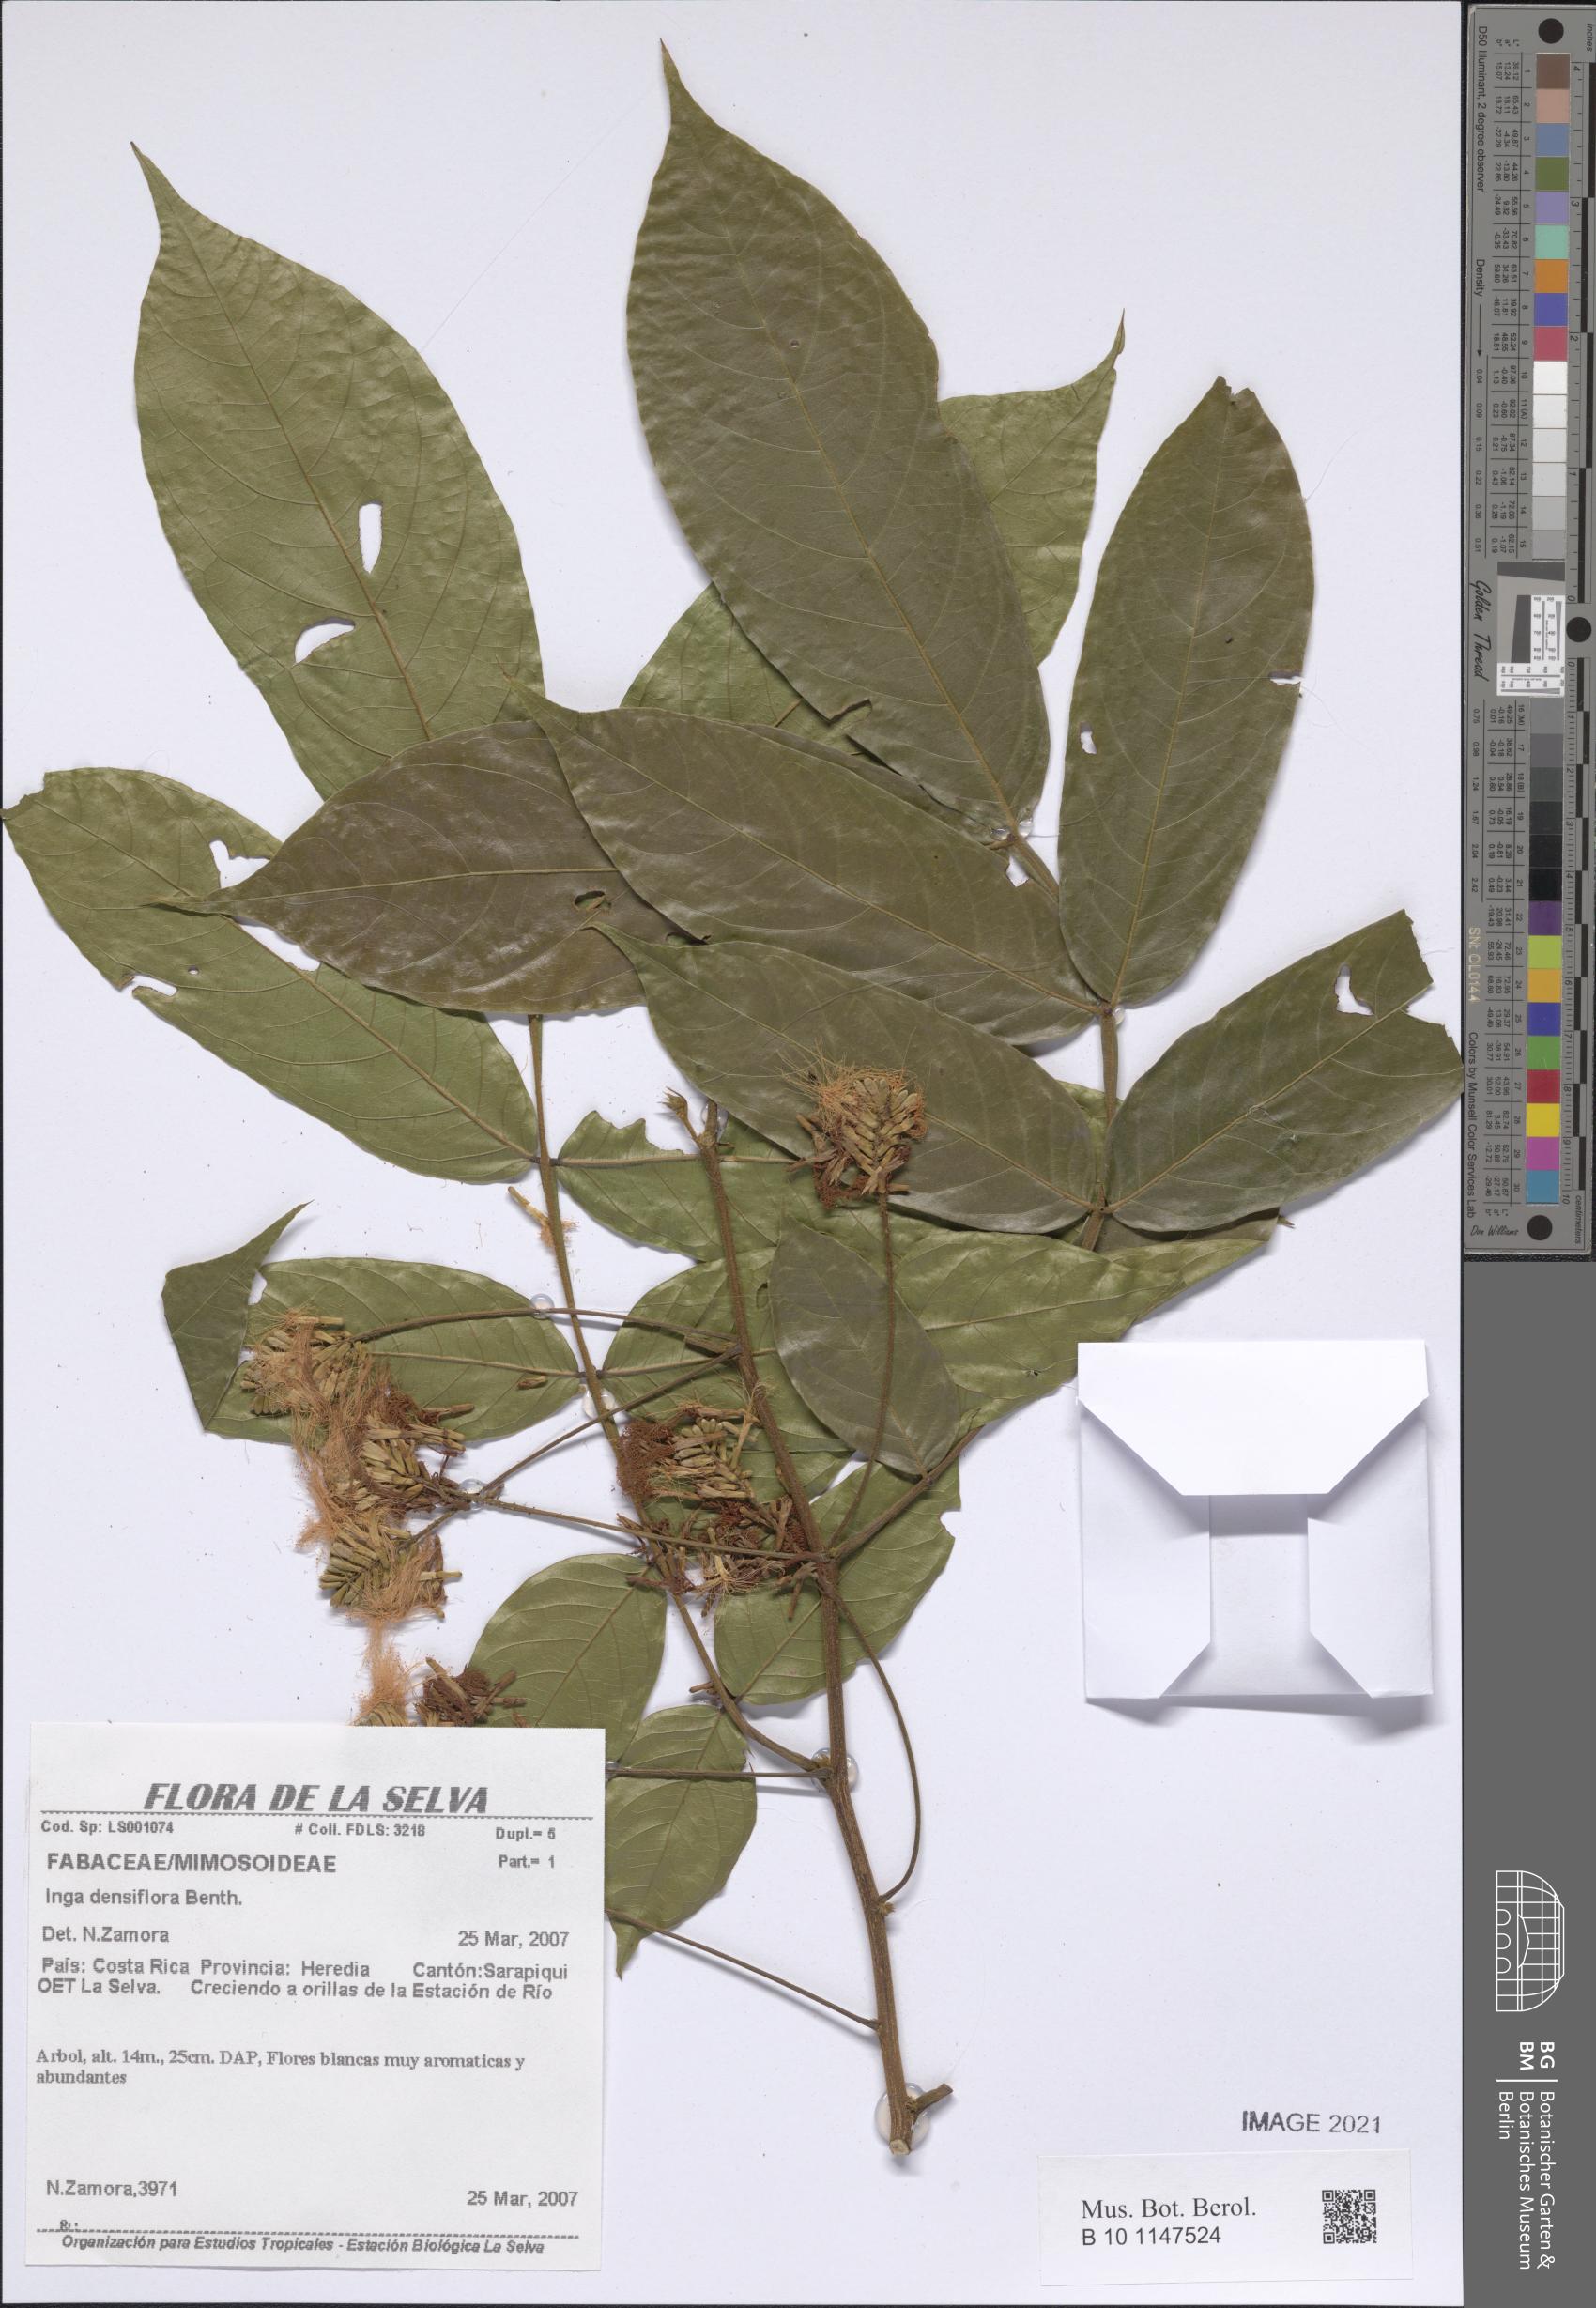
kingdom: Plantae
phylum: Tracheophyta
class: Magnoliopsida
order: Fabales
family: Fabaceae
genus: Inga
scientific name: Inga densiflora
